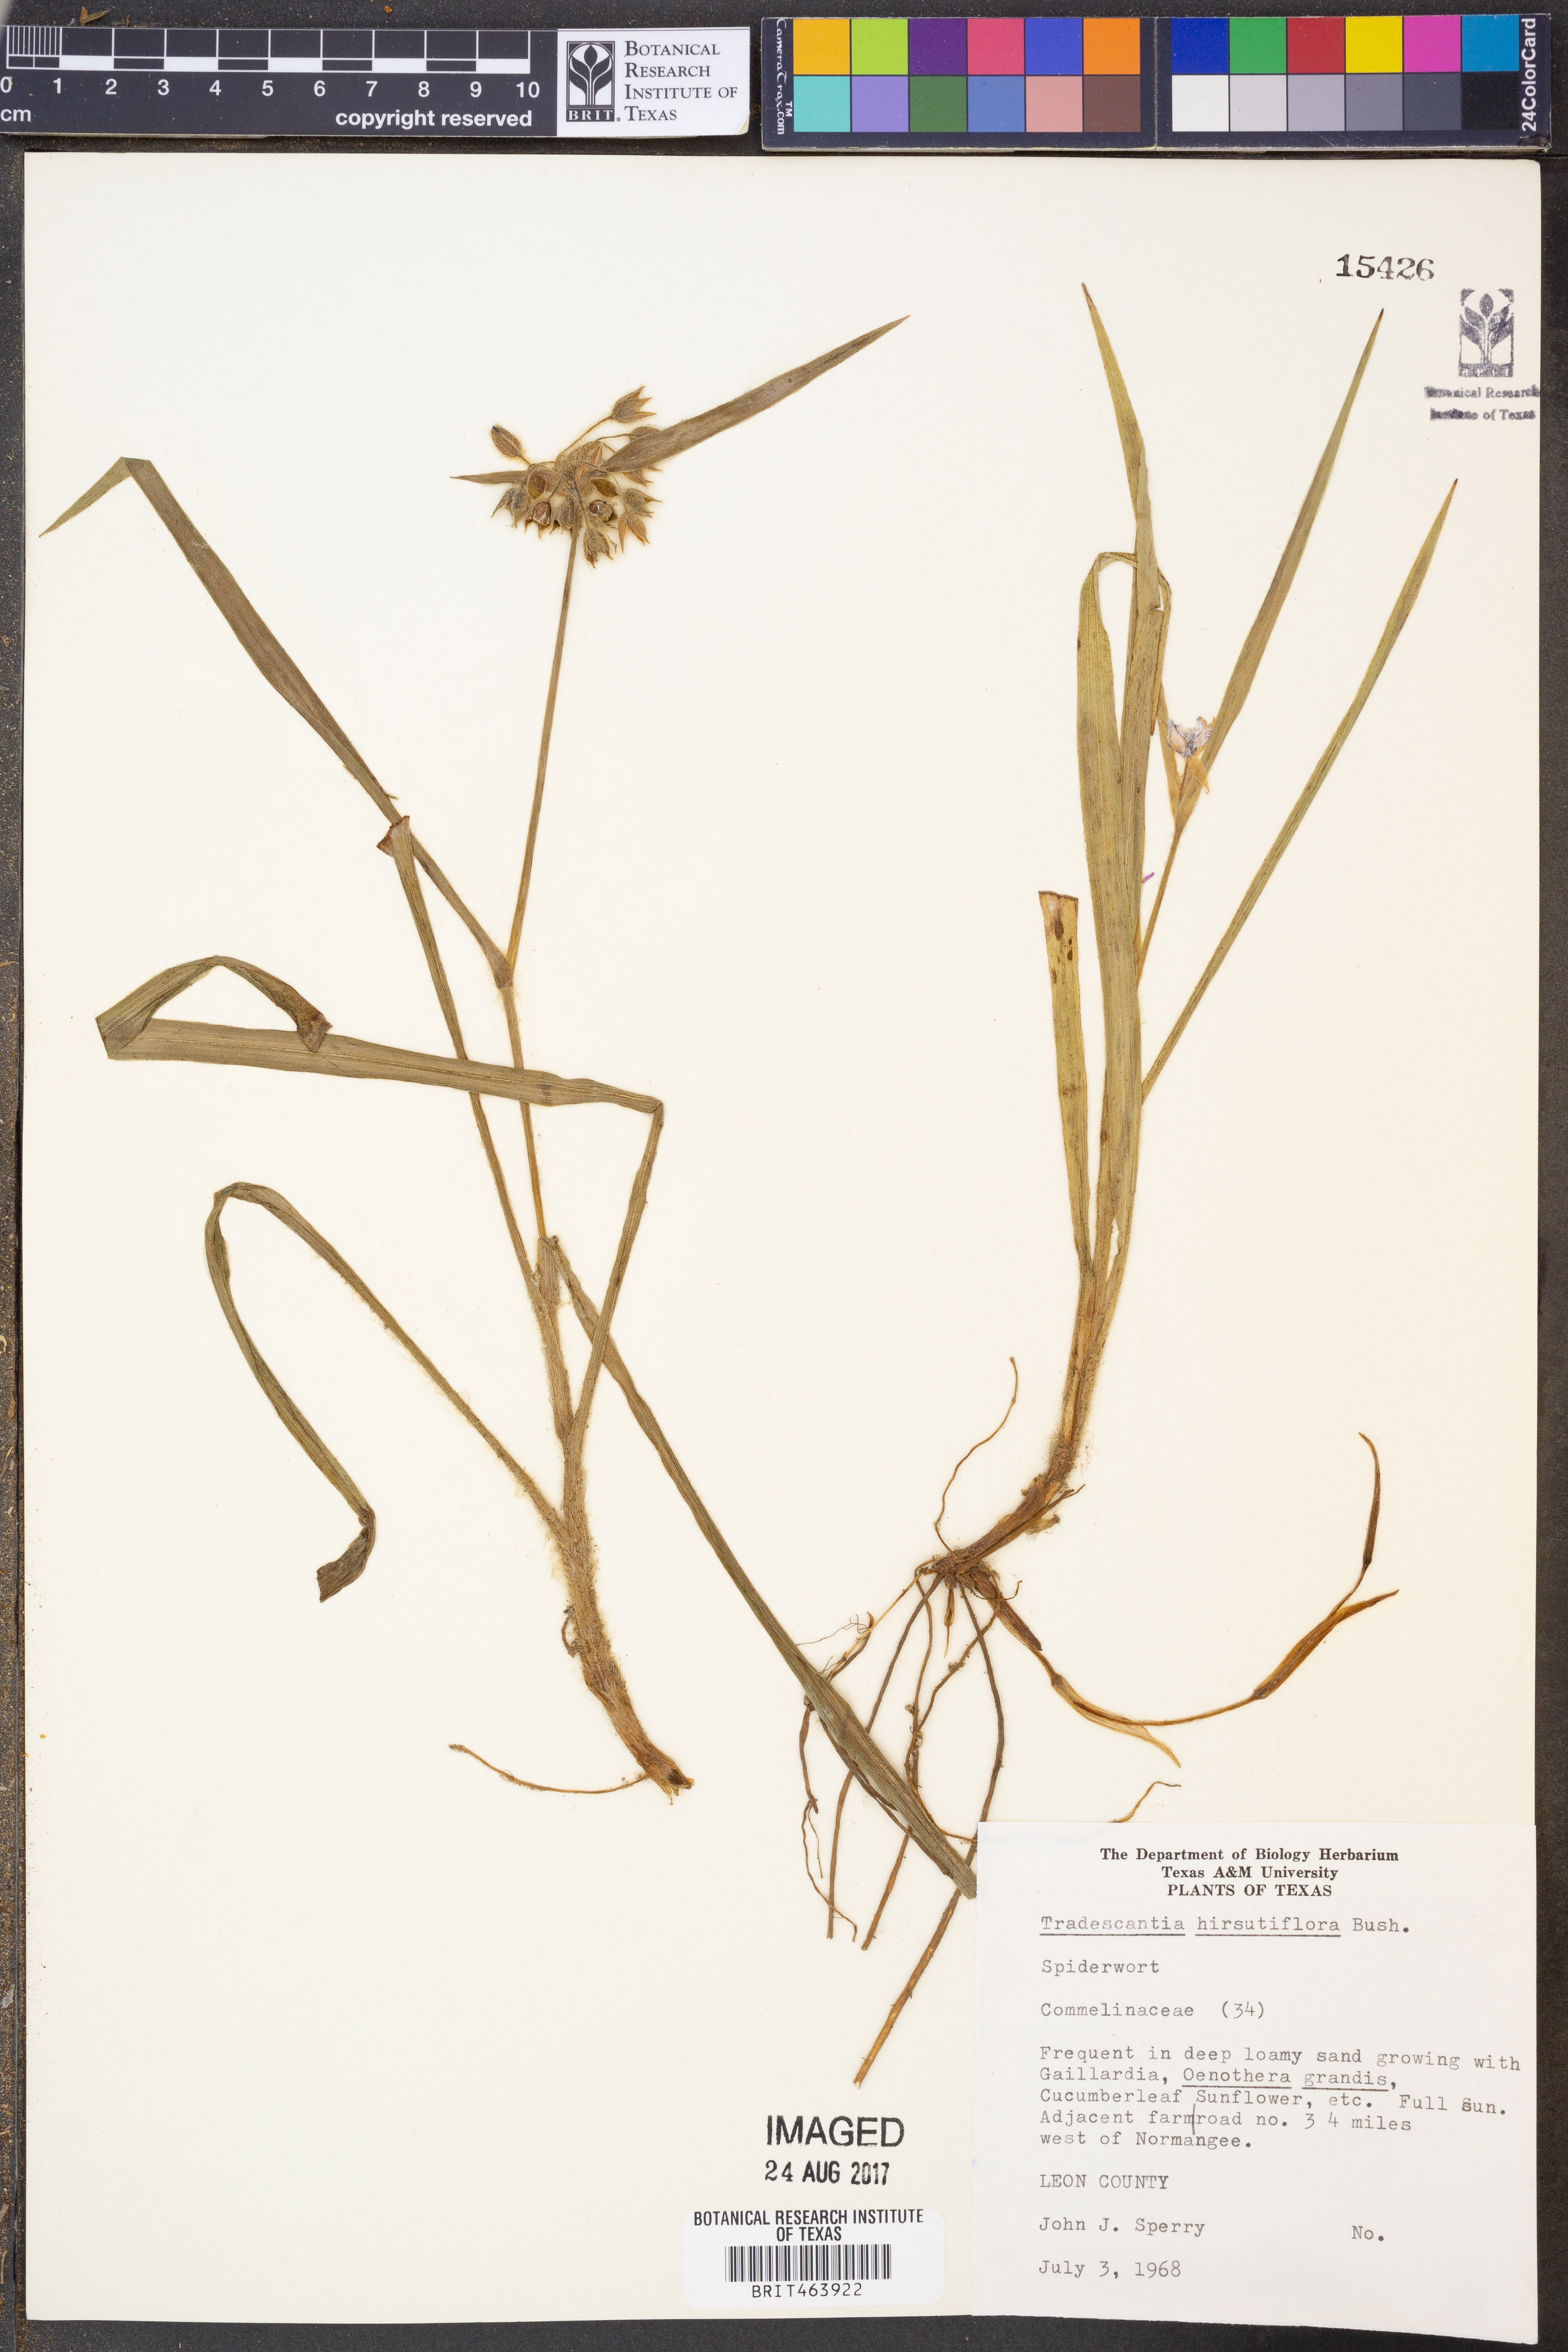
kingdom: Plantae
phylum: Tracheophyta
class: Liliopsida
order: Commelinales
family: Commelinaceae
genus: Tradescantia
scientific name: Tradescantia hirsutiflora
